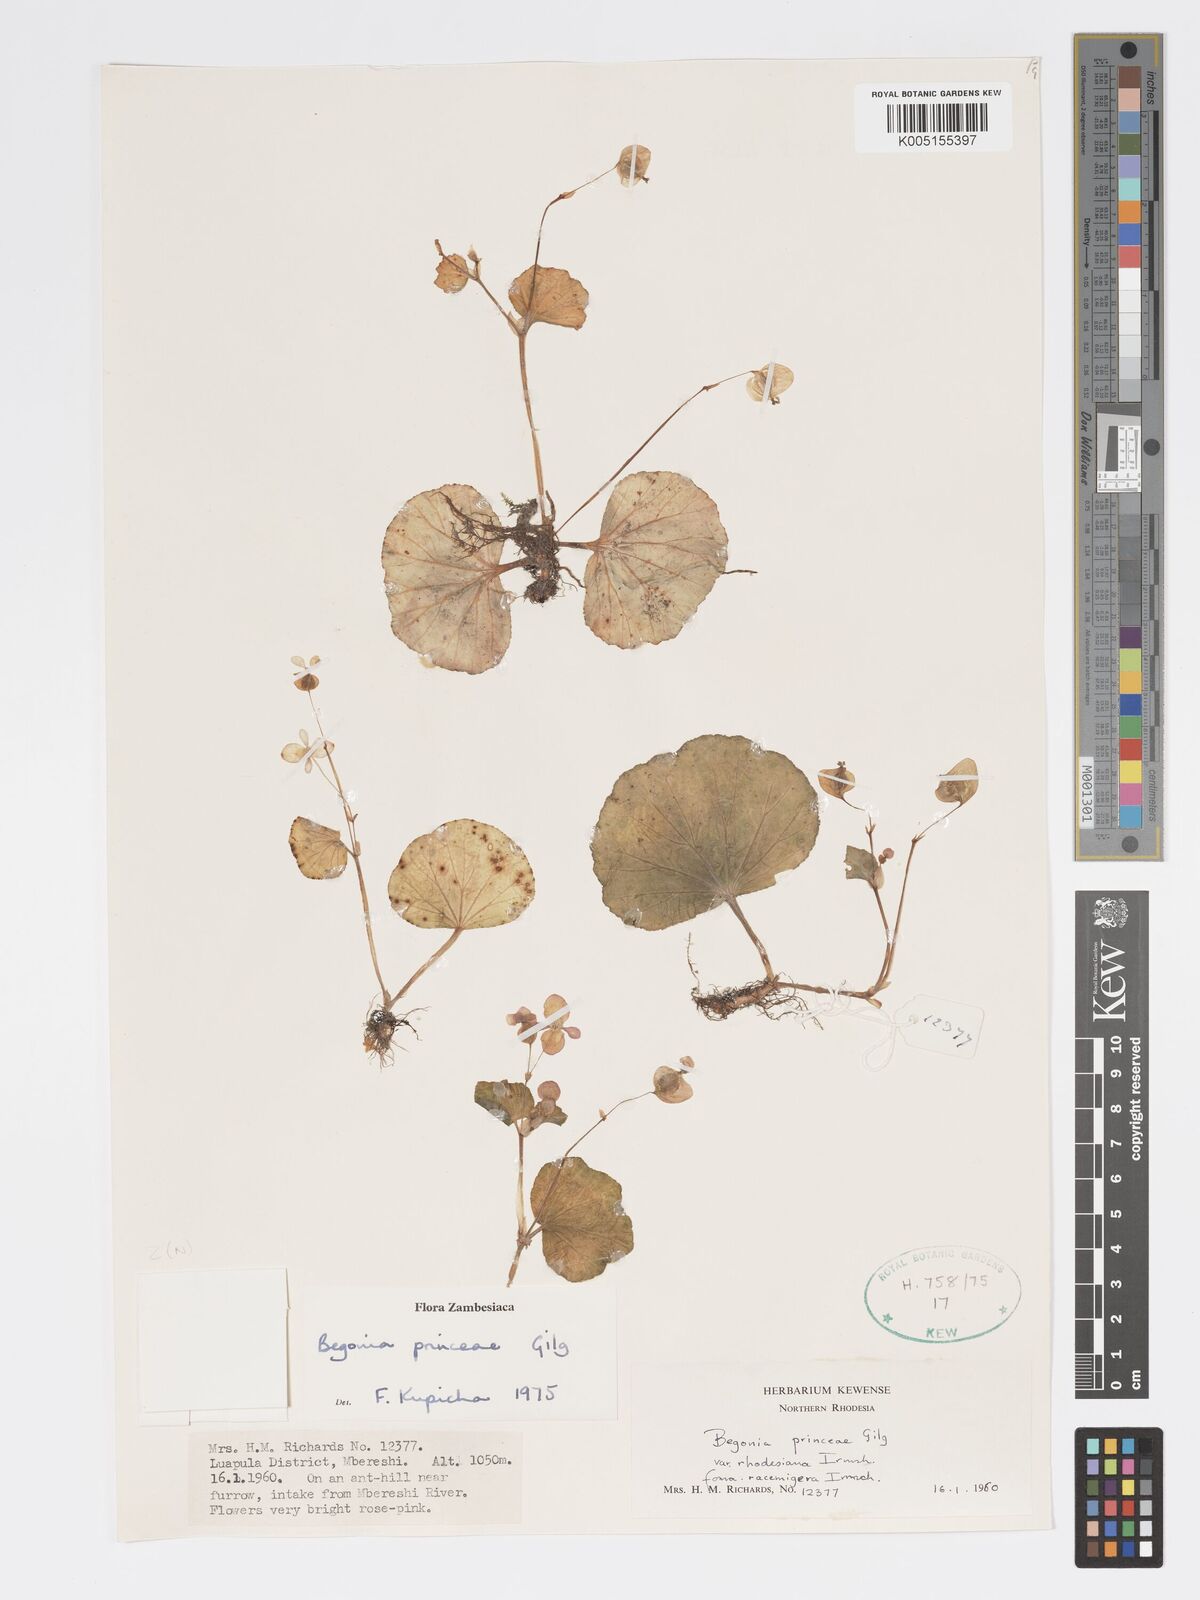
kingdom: Plantae
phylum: Tracheophyta
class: Magnoliopsida
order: Cucurbitales
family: Begoniaceae
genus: Begonia
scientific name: Begonia princeae
